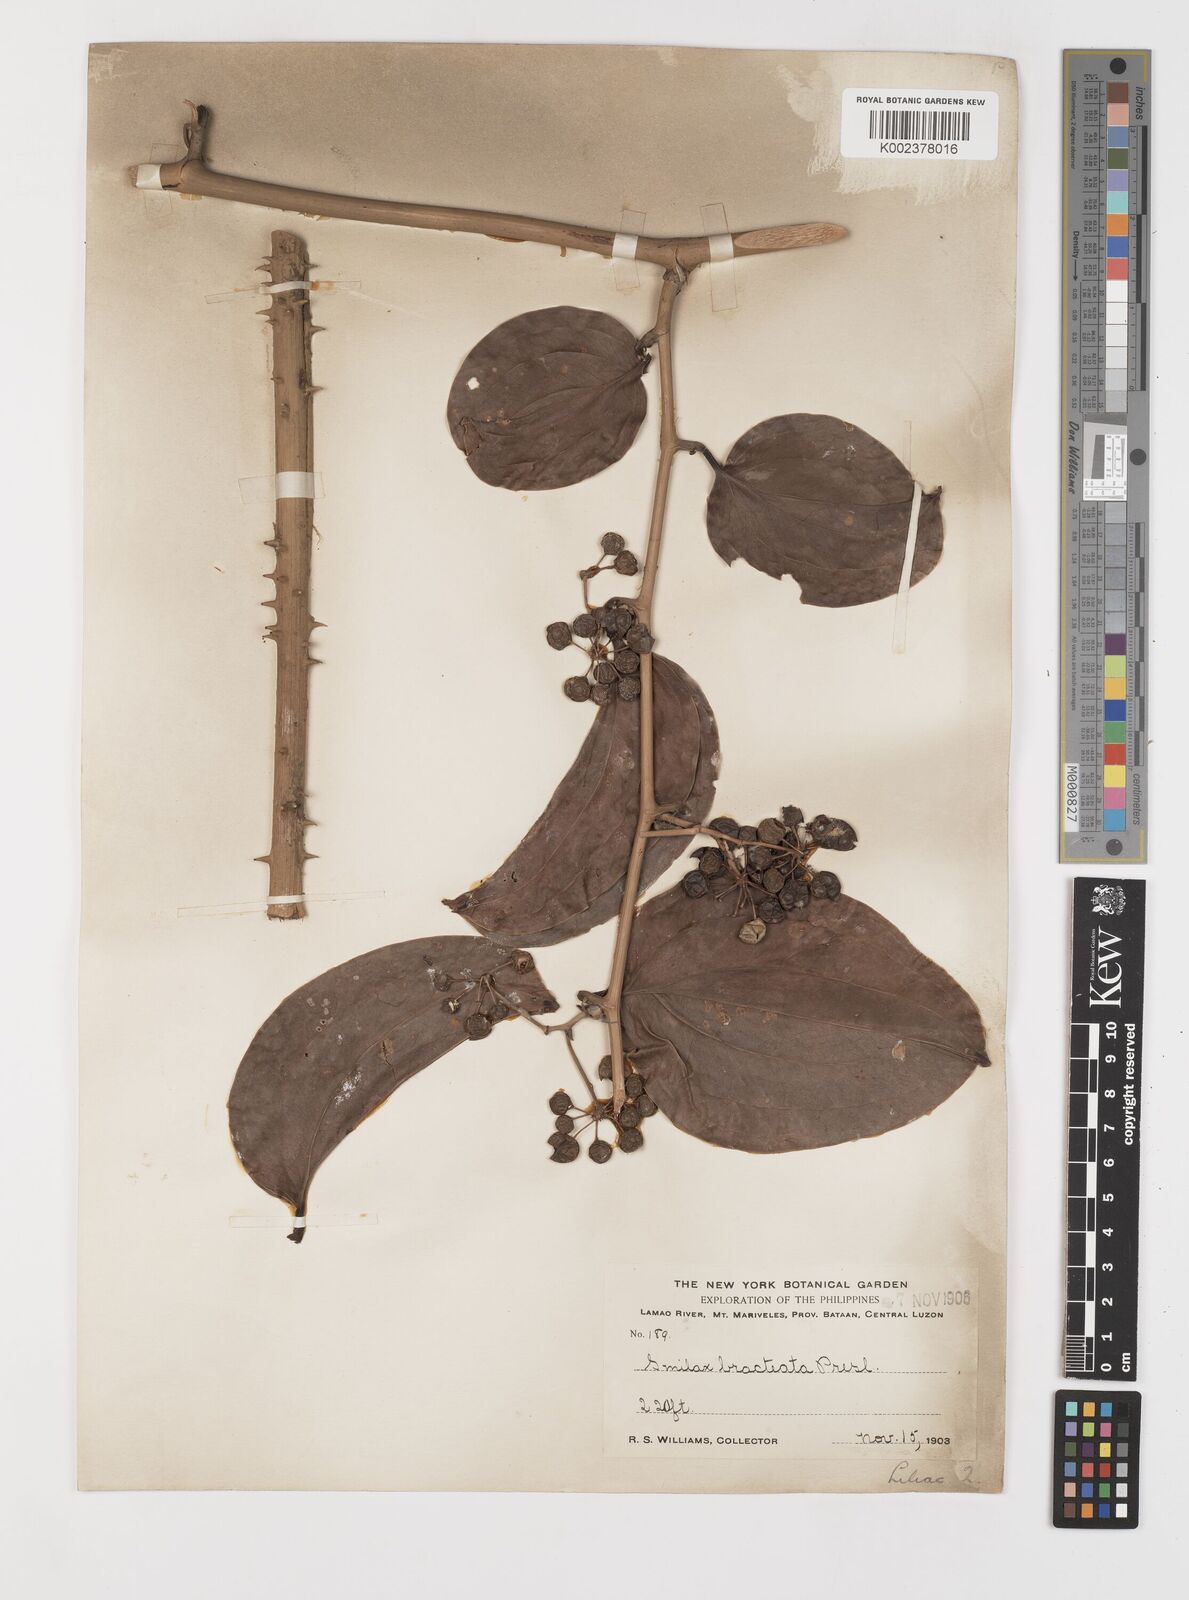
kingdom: Plantae
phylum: Tracheophyta
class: Liliopsida
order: Liliales
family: Smilacaceae
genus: Smilax
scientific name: Smilax bracteata
